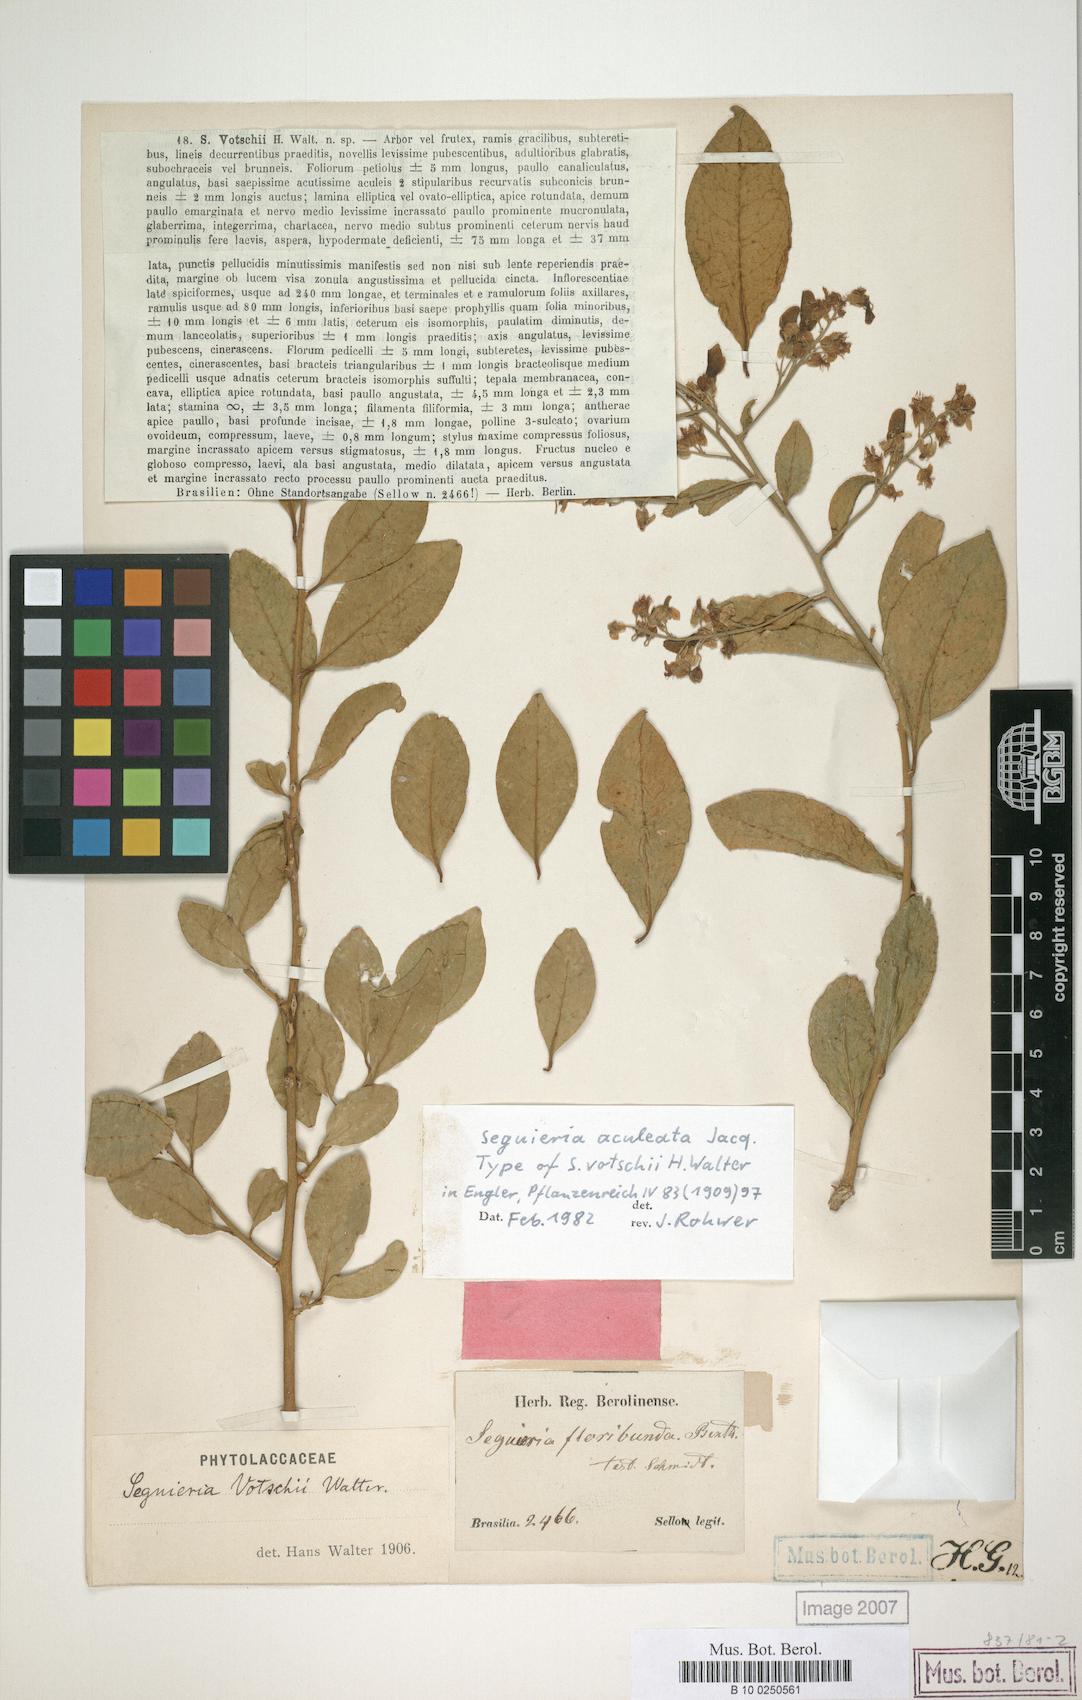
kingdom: Plantae
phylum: Tracheophyta
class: Magnoliopsida
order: Caryophyllales
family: Phytolaccaceae
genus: Seguieria
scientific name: Seguieria aculeata
